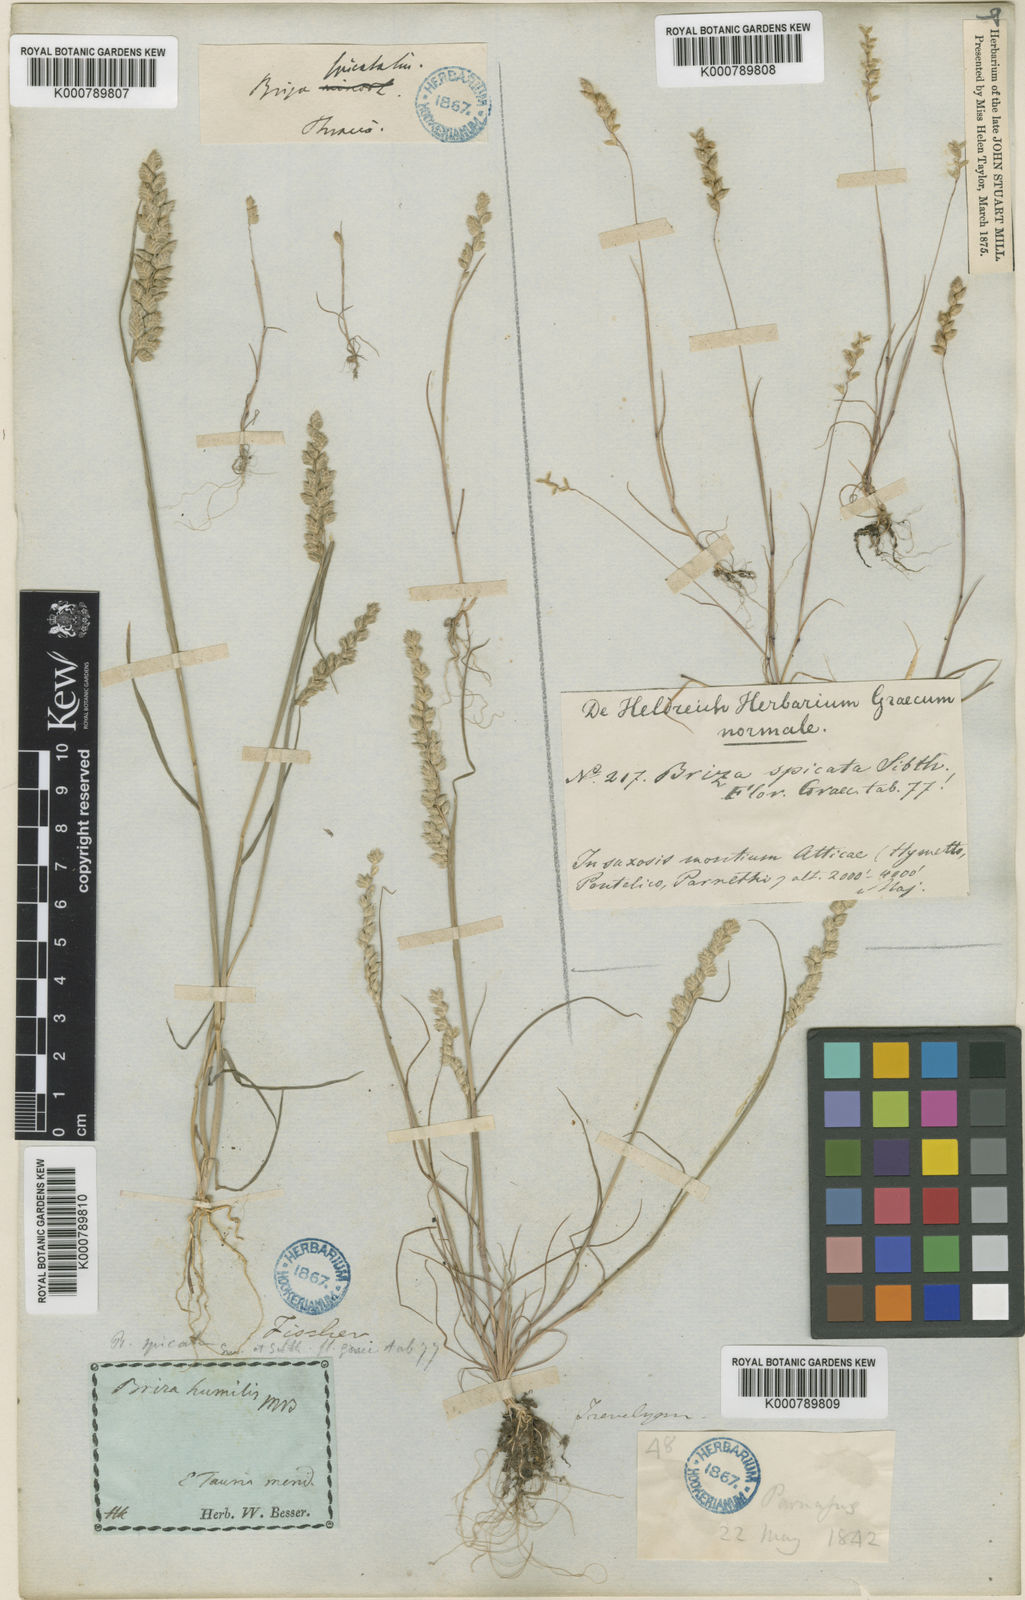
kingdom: Plantae
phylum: Tracheophyta
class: Liliopsida
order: Poales
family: Poaceae
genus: Briza
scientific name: Briza humilis
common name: Spiked quaking grass
